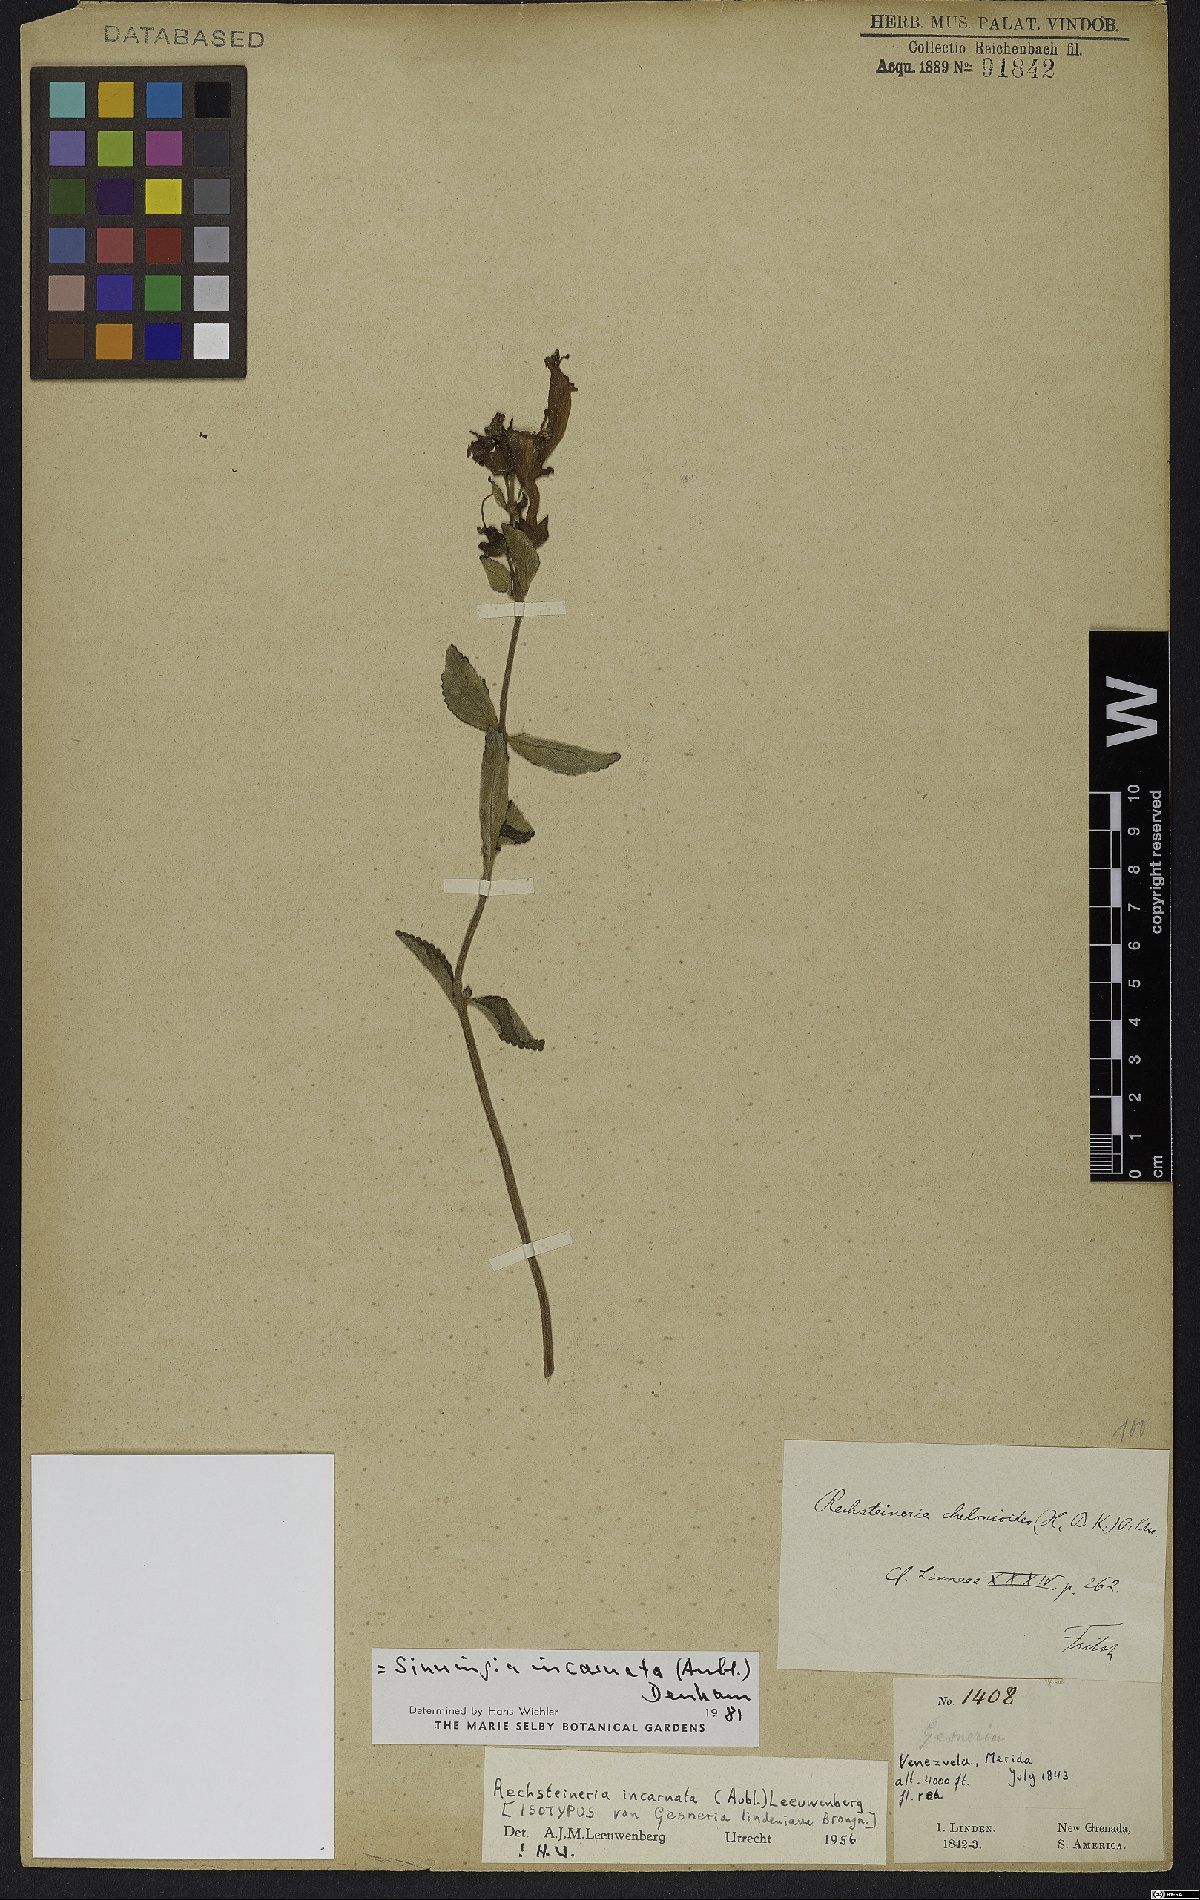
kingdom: Plantae
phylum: Tracheophyta
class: Magnoliopsida
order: Lamiales
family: Gesneriaceae
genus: Sinningia
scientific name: Sinningia incarnata
